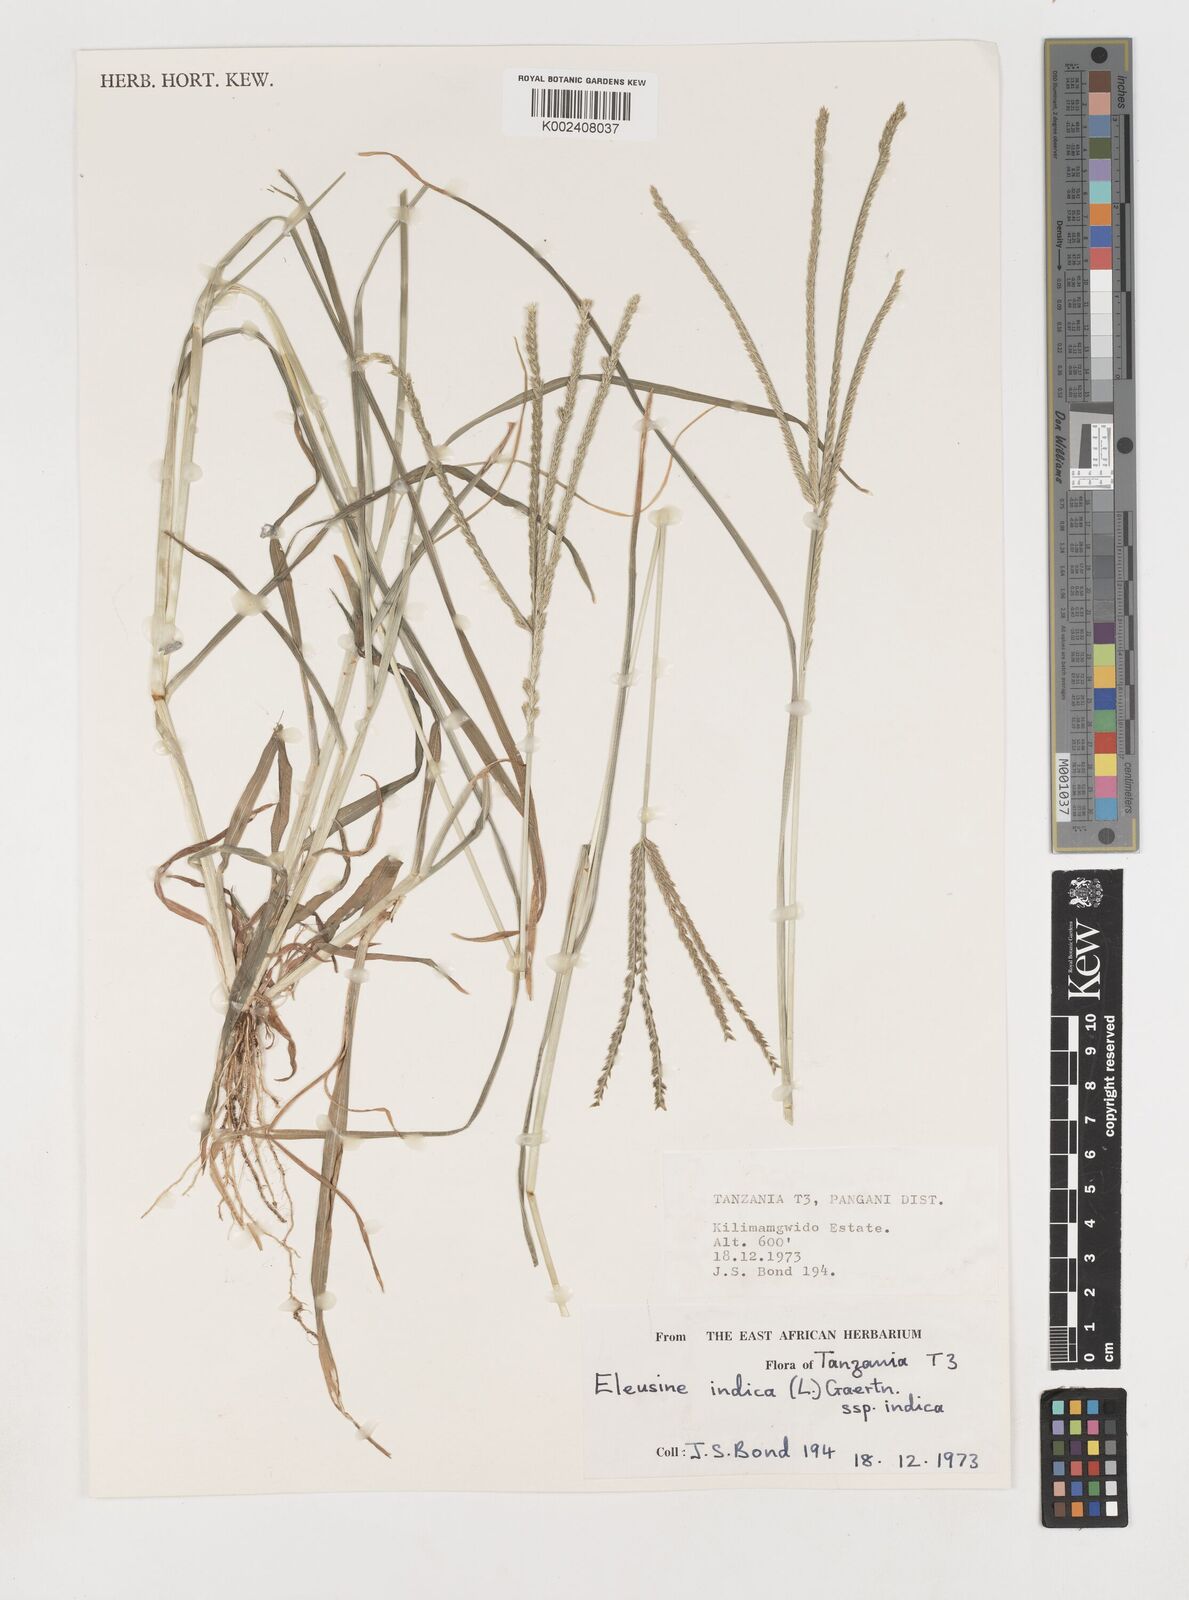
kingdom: Plantae
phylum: Tracheophyta
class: Liliopsida
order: Poales
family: Poaceae
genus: Eleusine
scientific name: Eleusine indica
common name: Yard-grass
